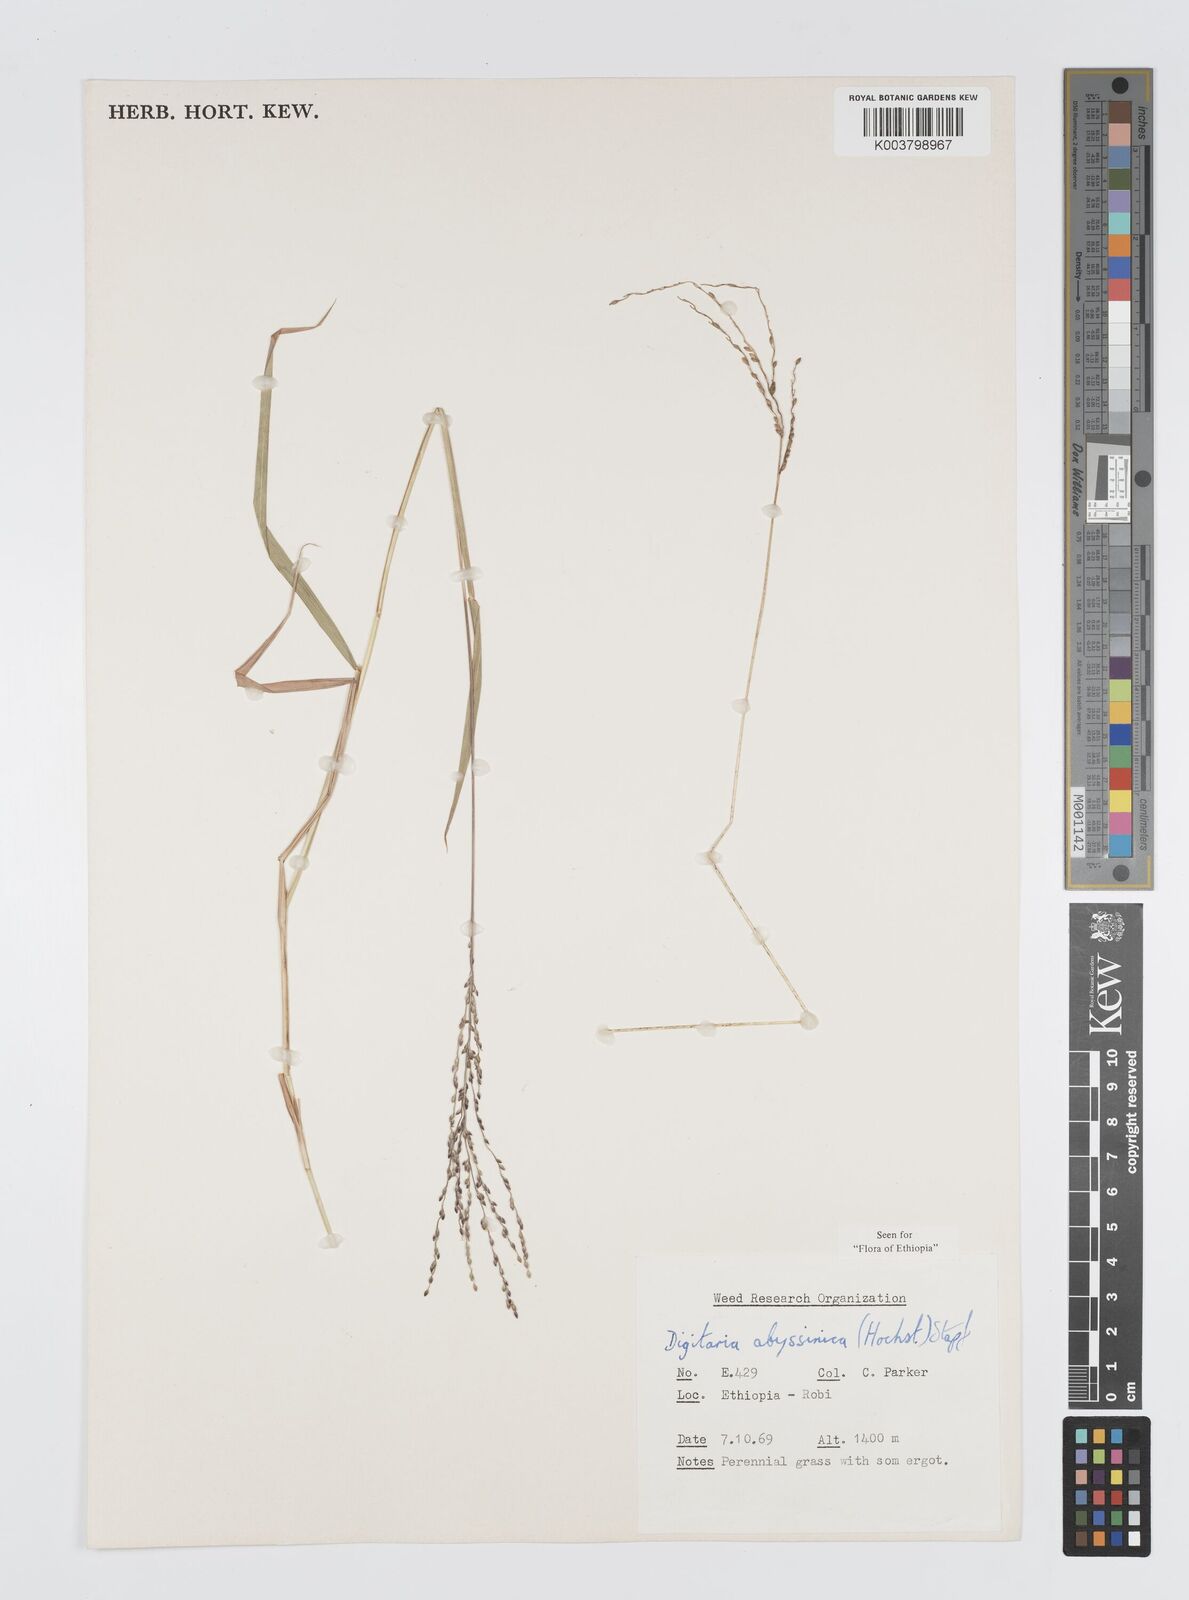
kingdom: Plantae
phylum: Tracheophyta
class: Liliopsida
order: Poales
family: Poaceae
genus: Digitaria
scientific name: Digitaria abyssinica
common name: African couchgrass
